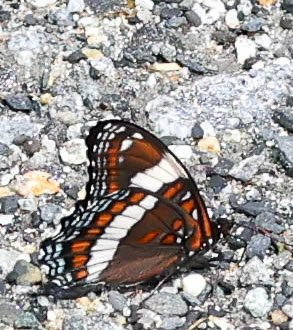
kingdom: Animalia
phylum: Arthropoda
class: Insecta
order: Lepidoptera
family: Nymphalidae
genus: Limenitis
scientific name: Limenitis arthemis
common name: Red-spotted Admiral
